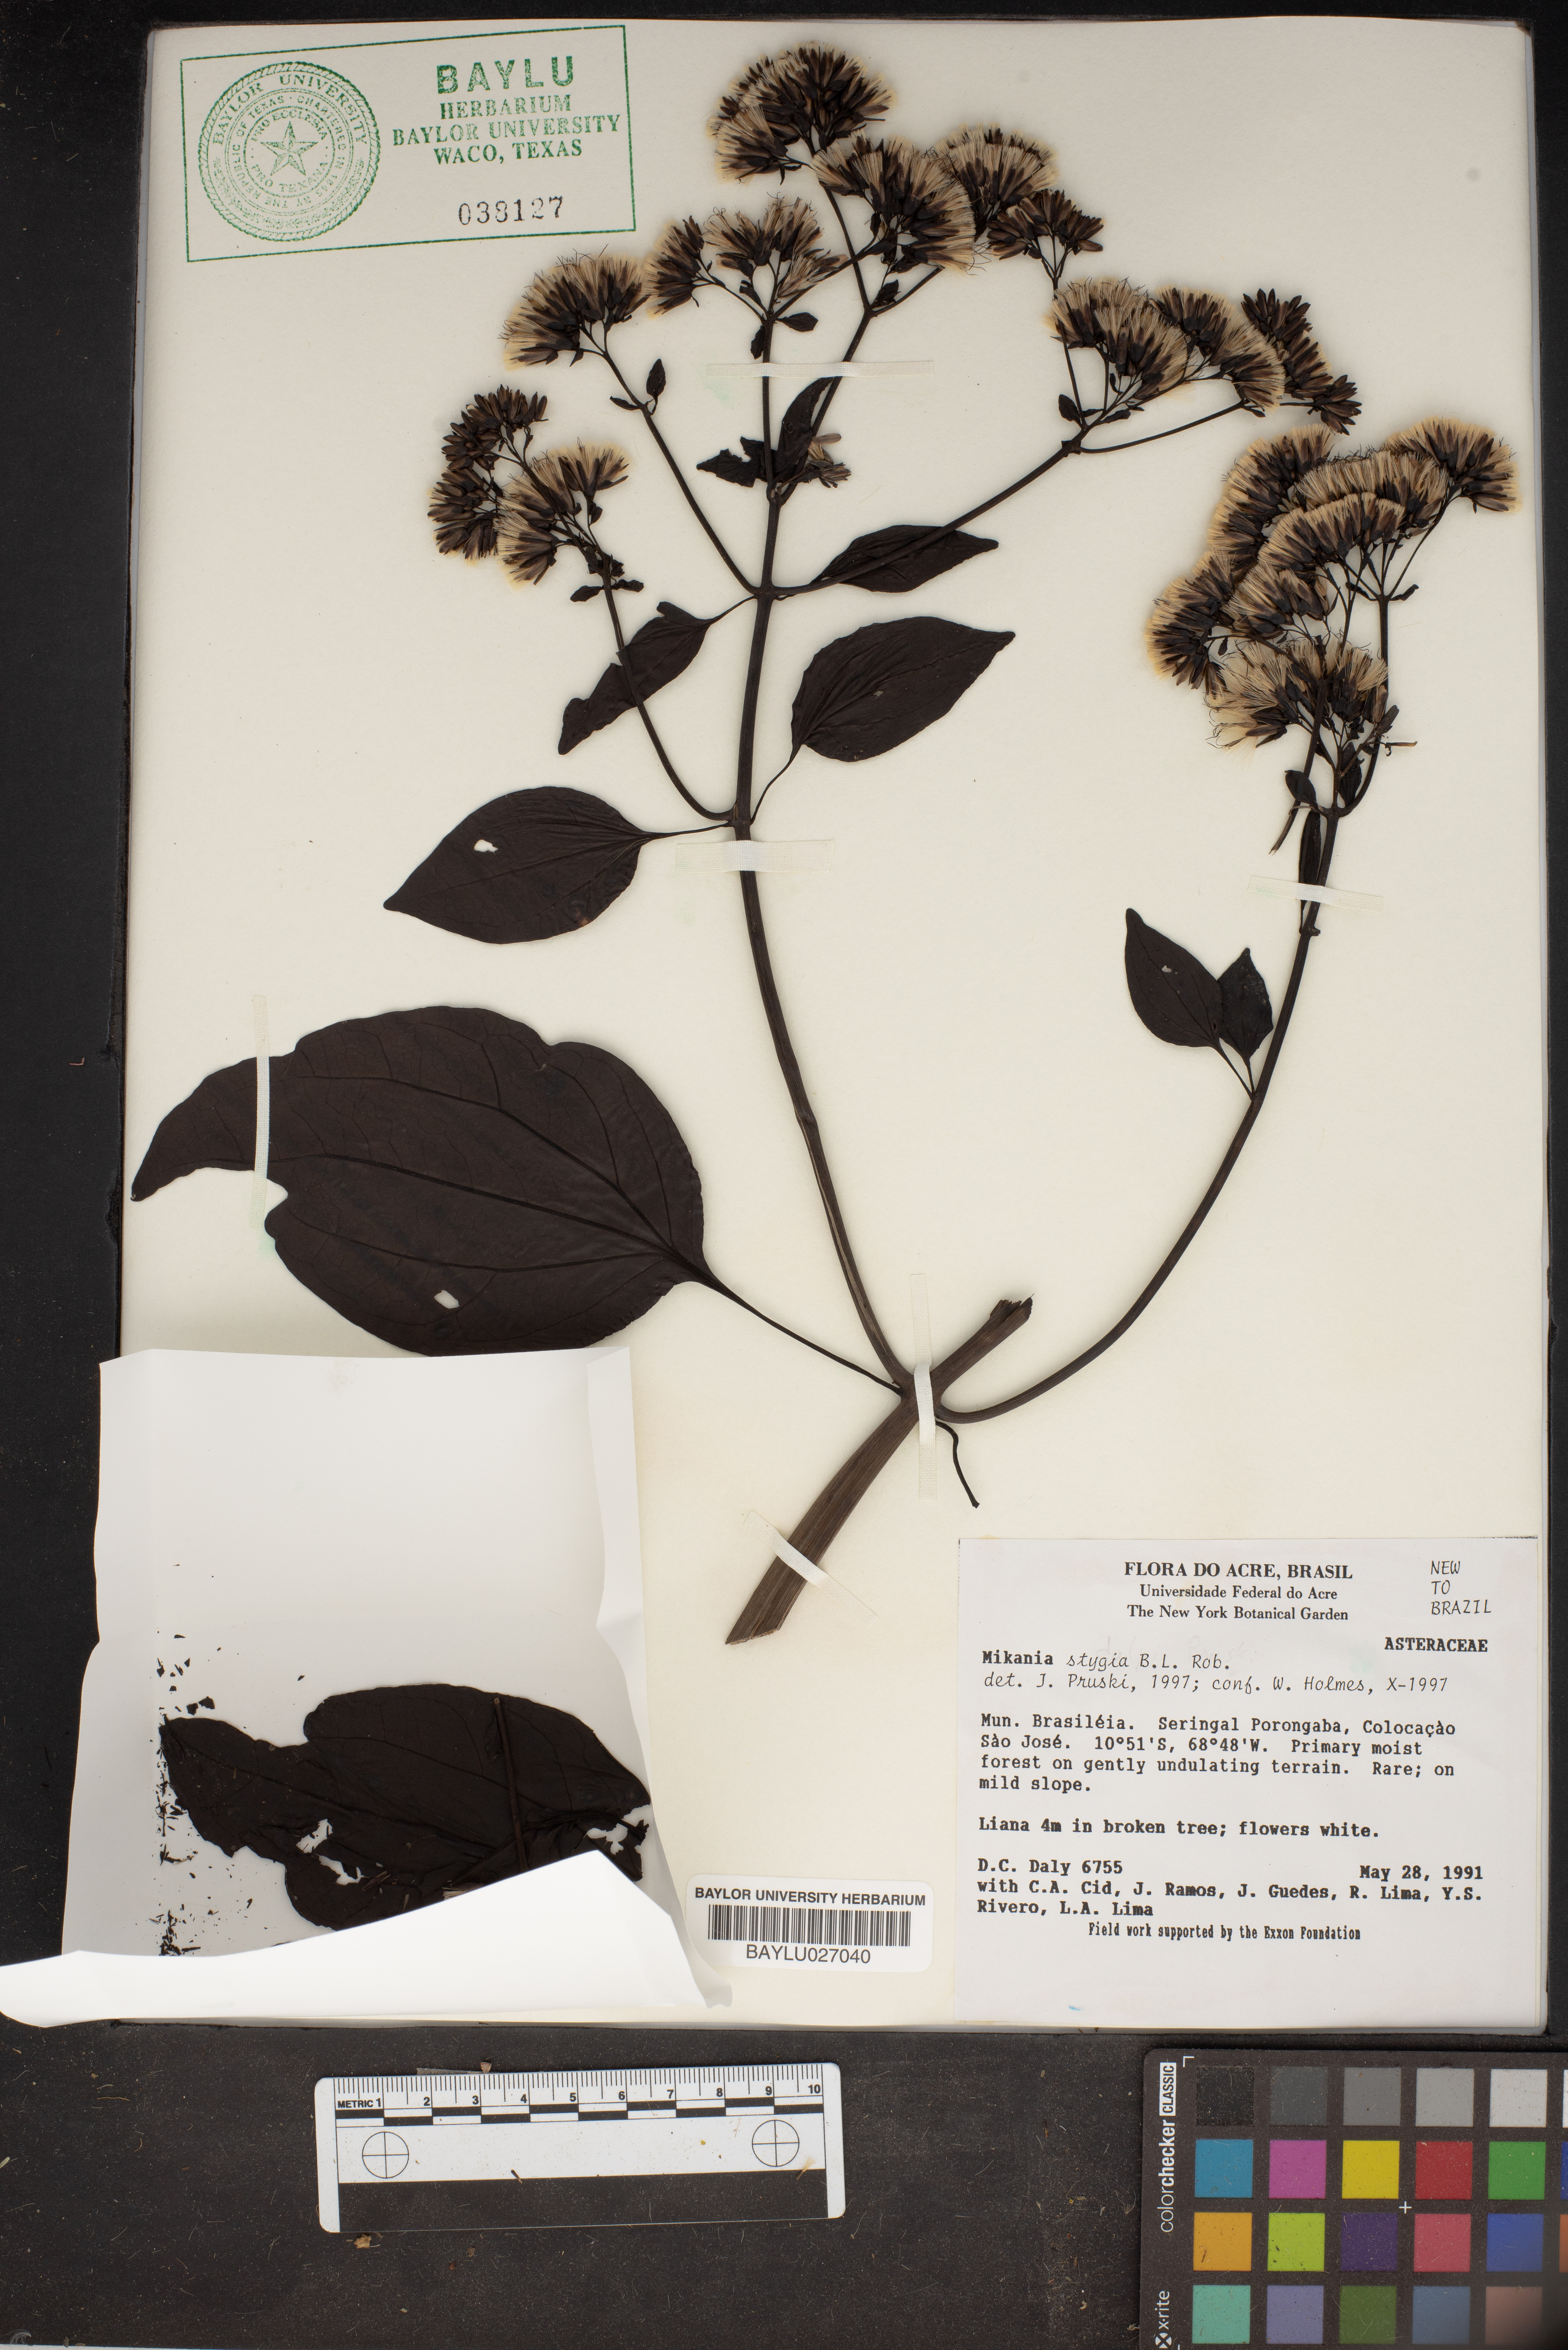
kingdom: Plantae
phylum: Tracheophyta
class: Magnoliopsida
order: Asterales
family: Asteraceae
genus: Mikania
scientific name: Mikania stygia
